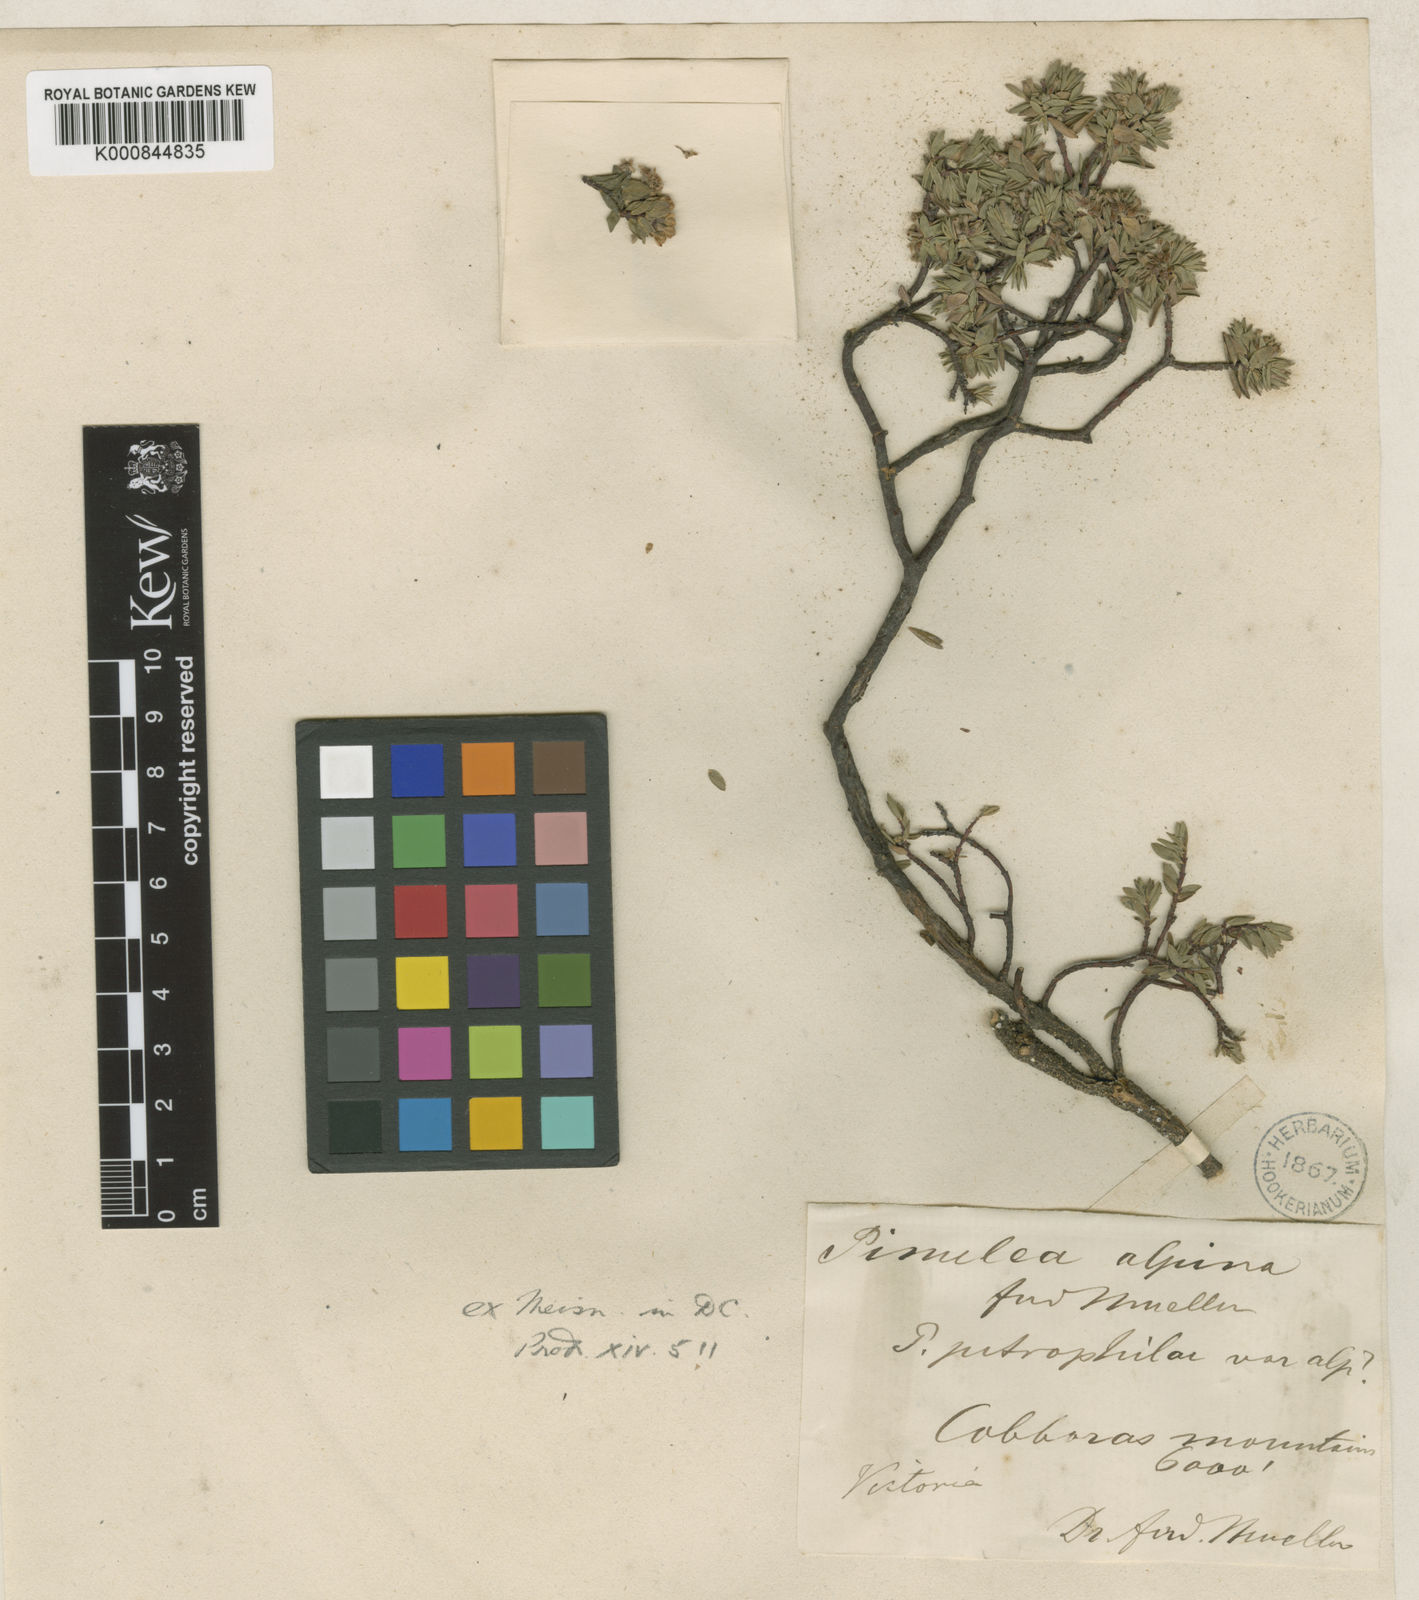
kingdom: Plantae
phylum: Tracheophyta
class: Magnoliopsida
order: Malvales
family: Thymelaeaceae
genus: Pimelea
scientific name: Pimelea alpina
